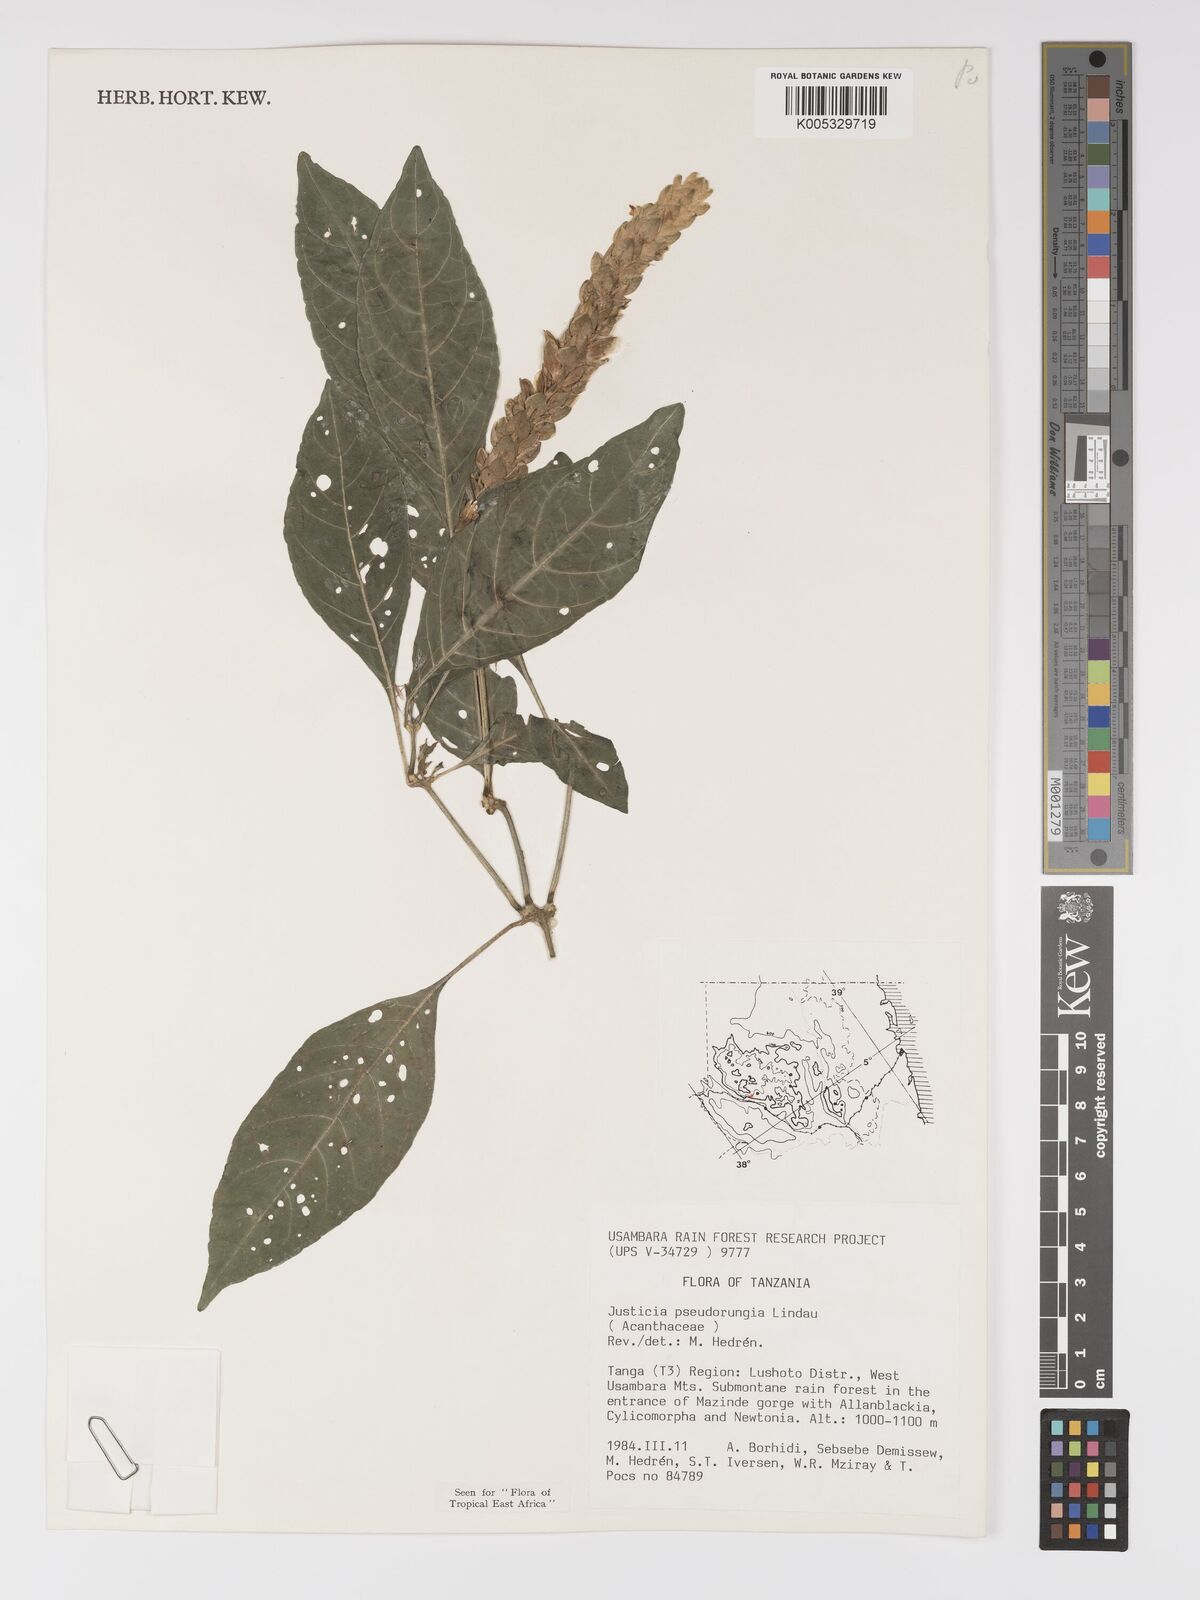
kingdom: Plantae
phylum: Tracheophyta
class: Magnoliopsida
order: Lamiales
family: Acanthaceae
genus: Justicia
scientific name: Justicia pseudorungia
